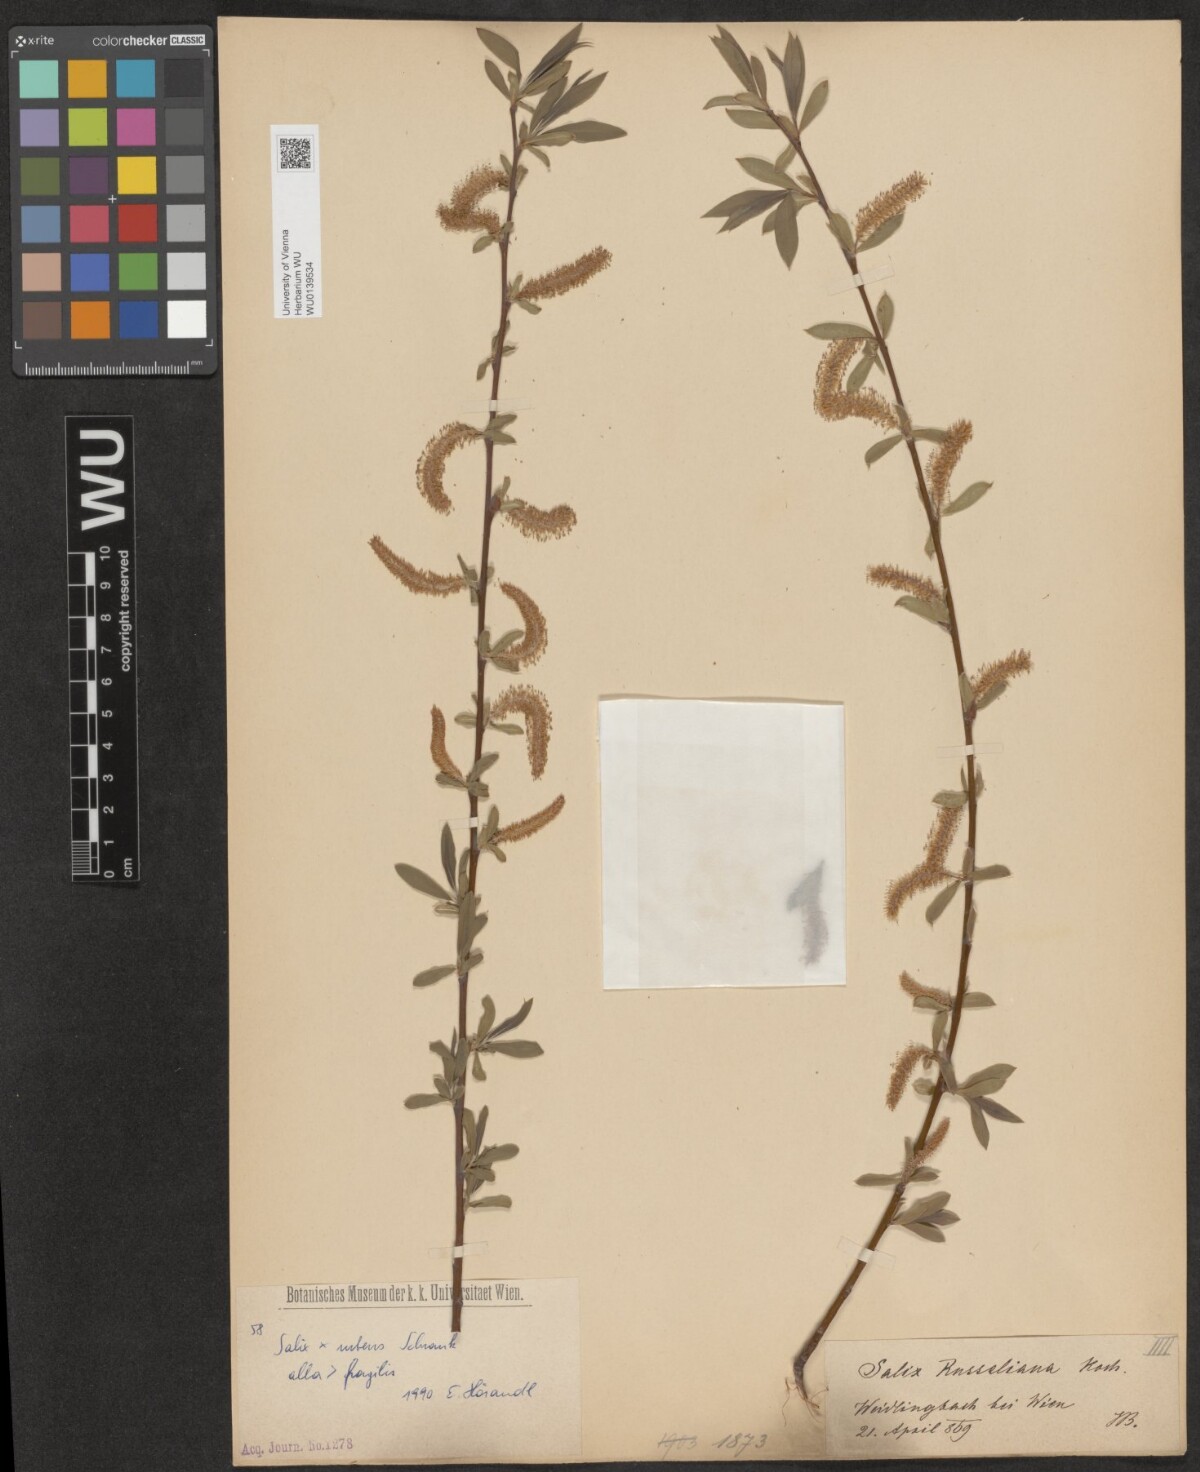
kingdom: Plantae
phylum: Tracheophyta
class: Magnoliopsida
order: Malpighiales
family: Salicaceae
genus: Salix
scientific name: Salix rubens
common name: Hybrid crack willow
